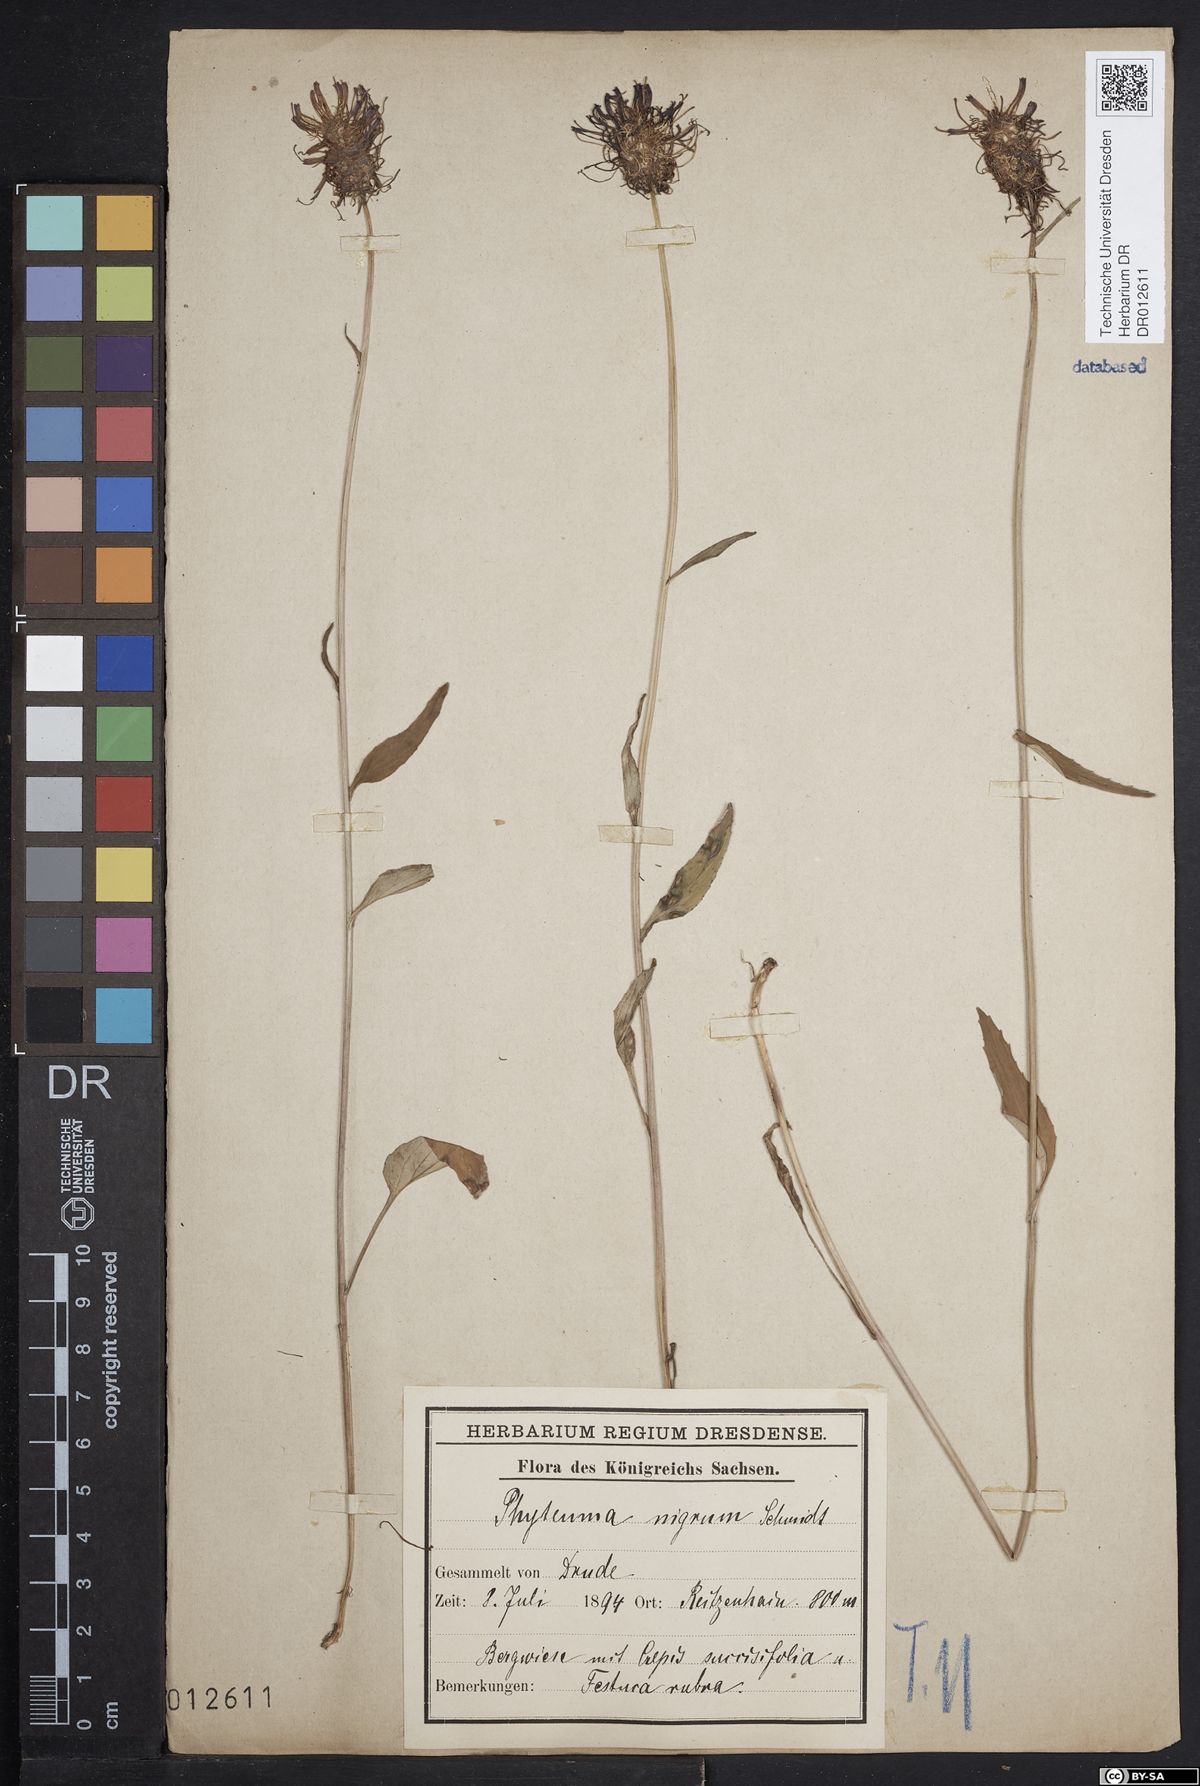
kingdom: Plantae
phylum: Tracheophyta
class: Magnoliopsida
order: Asterales
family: Campanulaceae
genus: Phyteuma
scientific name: Phyteuma nigrum
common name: Black rampion
